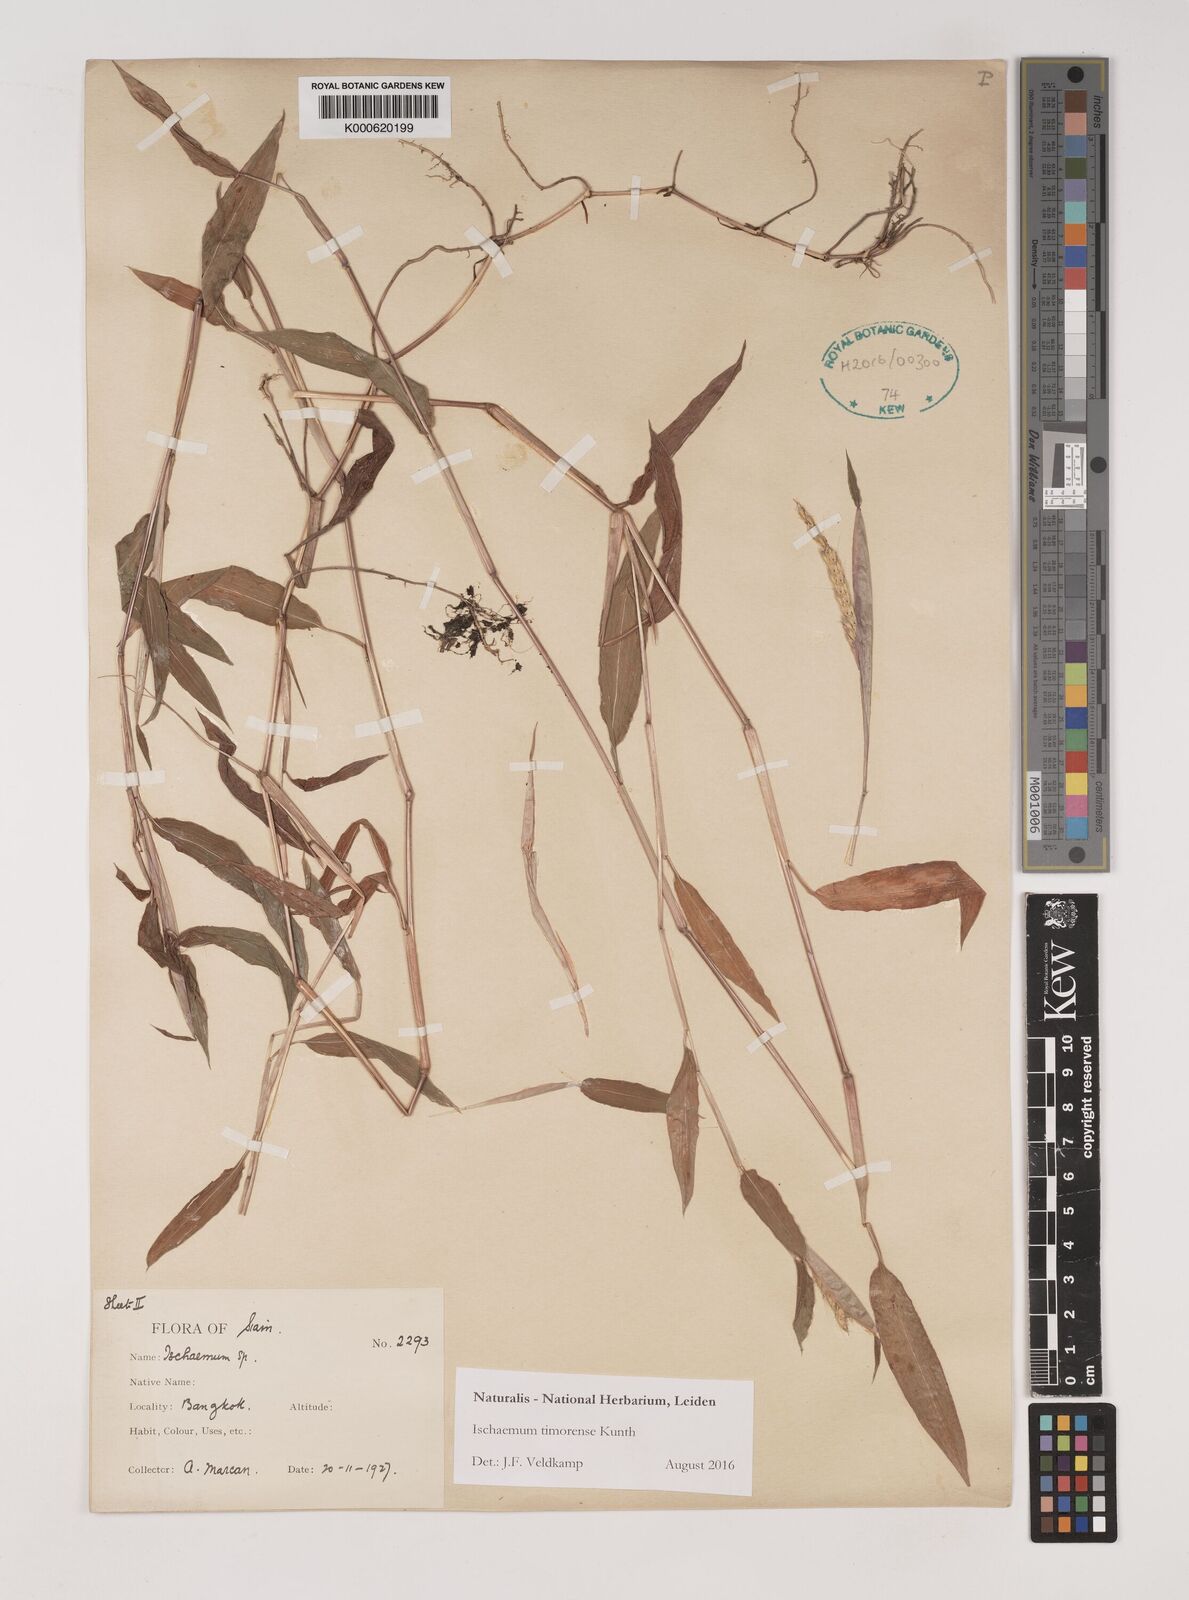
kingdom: Plantae
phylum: Tracheophyta
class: Liliopsida
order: Poales
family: Poaceae
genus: Ischaemum
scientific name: Ischaemum timorense
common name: Stalkleaf murainagrass
